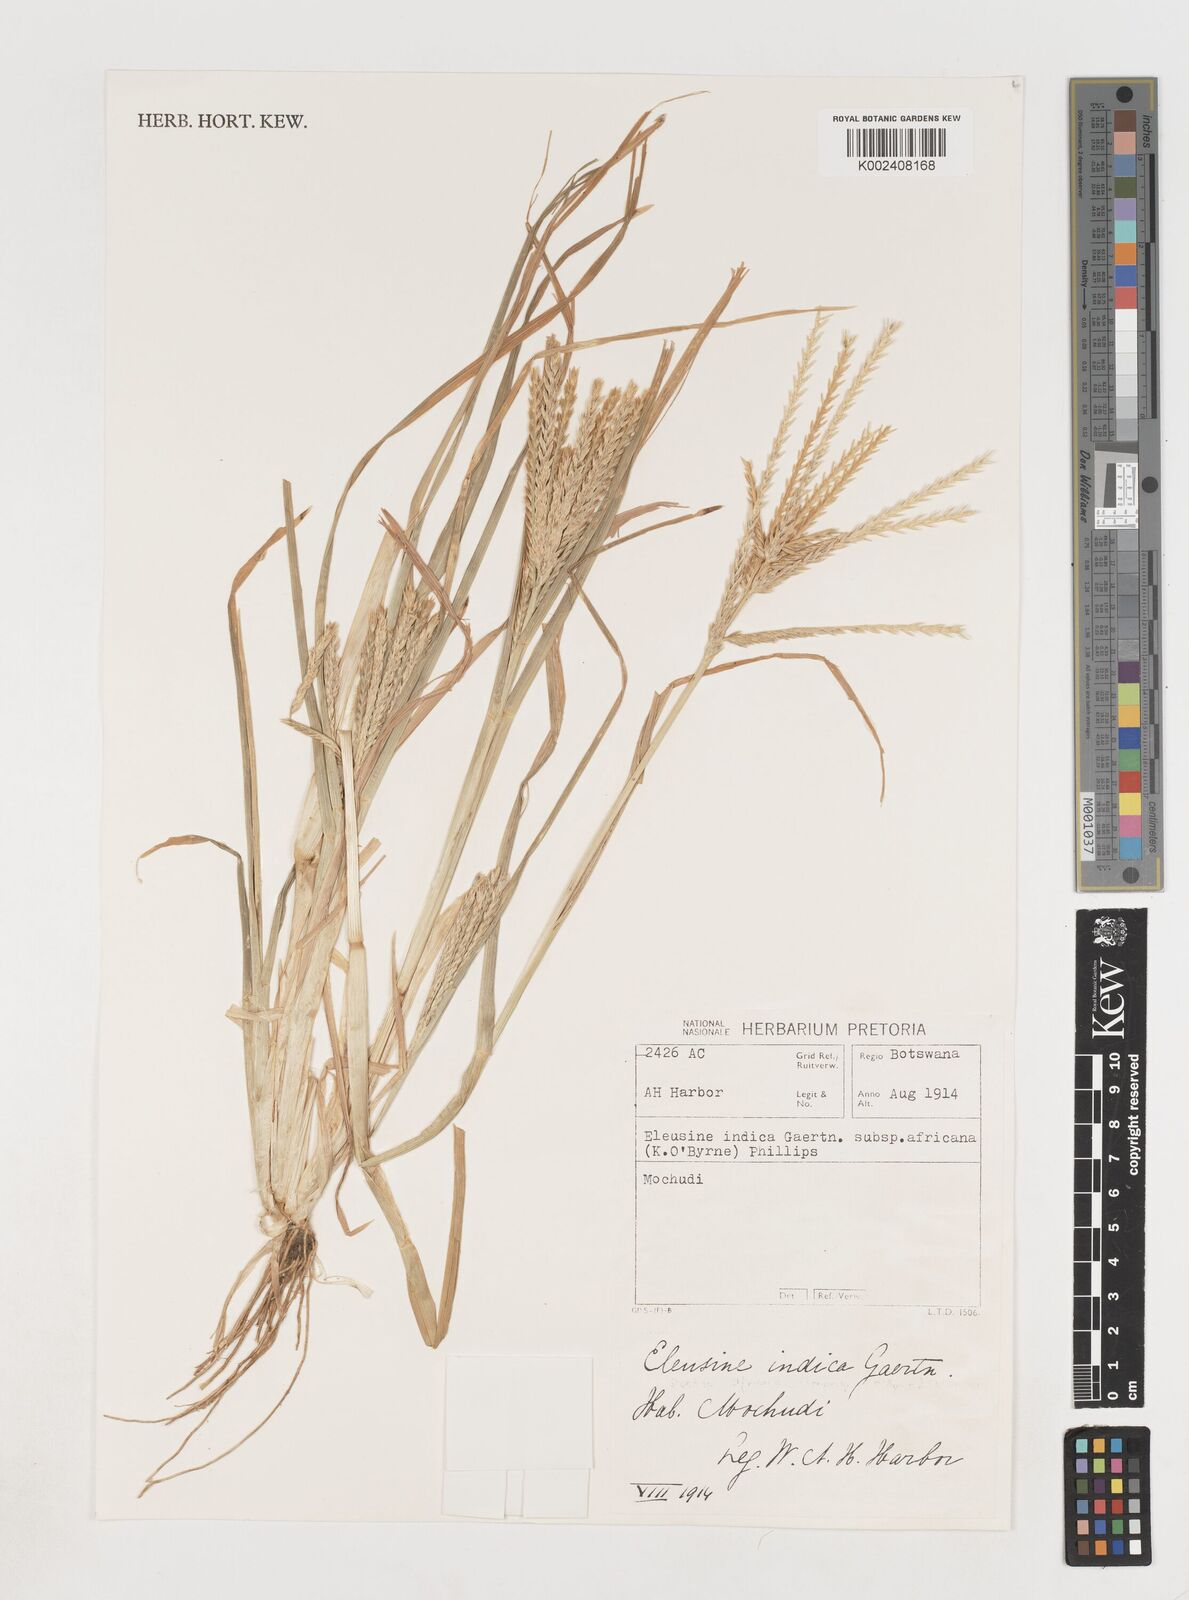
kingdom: Plantae
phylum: Tracheophyta
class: Liliopsida
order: Poales
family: Poaceae
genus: Eleusine
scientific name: Eleusine africana
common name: Wild african finger millet
